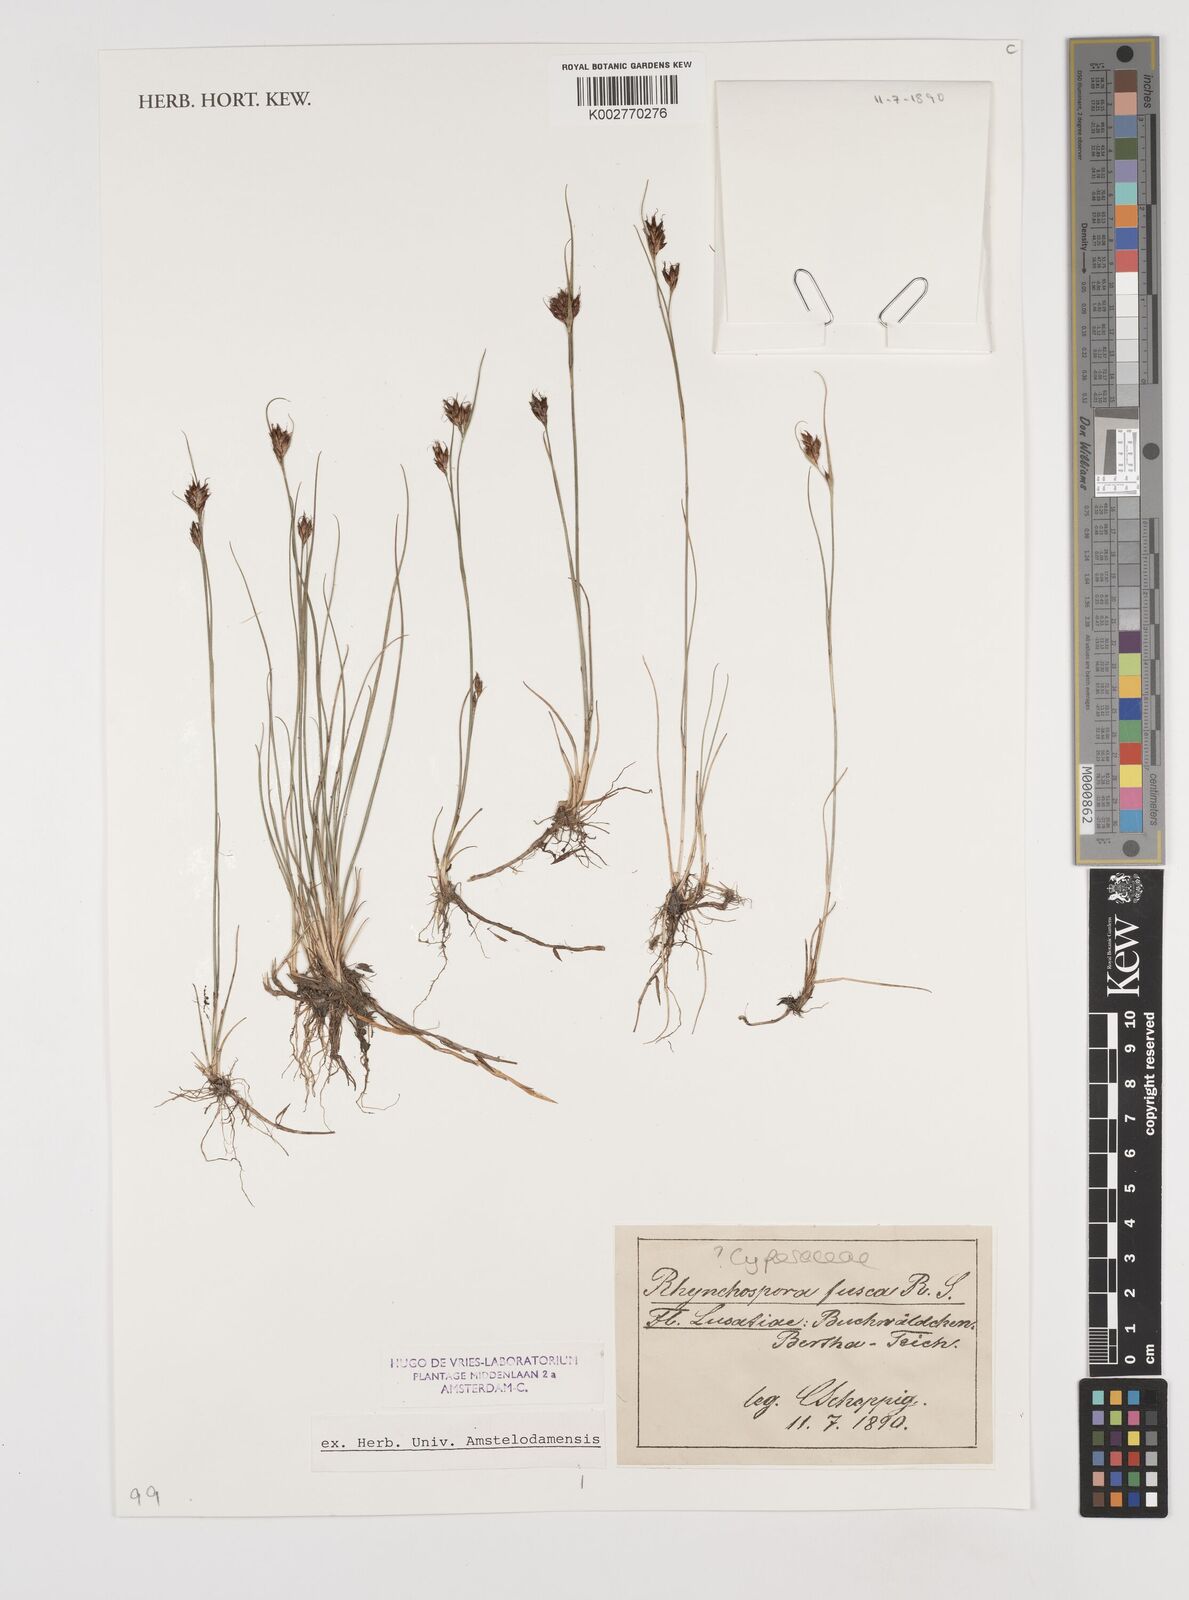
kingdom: Plantae
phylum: Tracheophyta
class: Liliopsida
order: Poales
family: Cyperaceae
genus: Rhynchospora
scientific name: Rhynchospora fusca
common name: Brown beak-sedge
